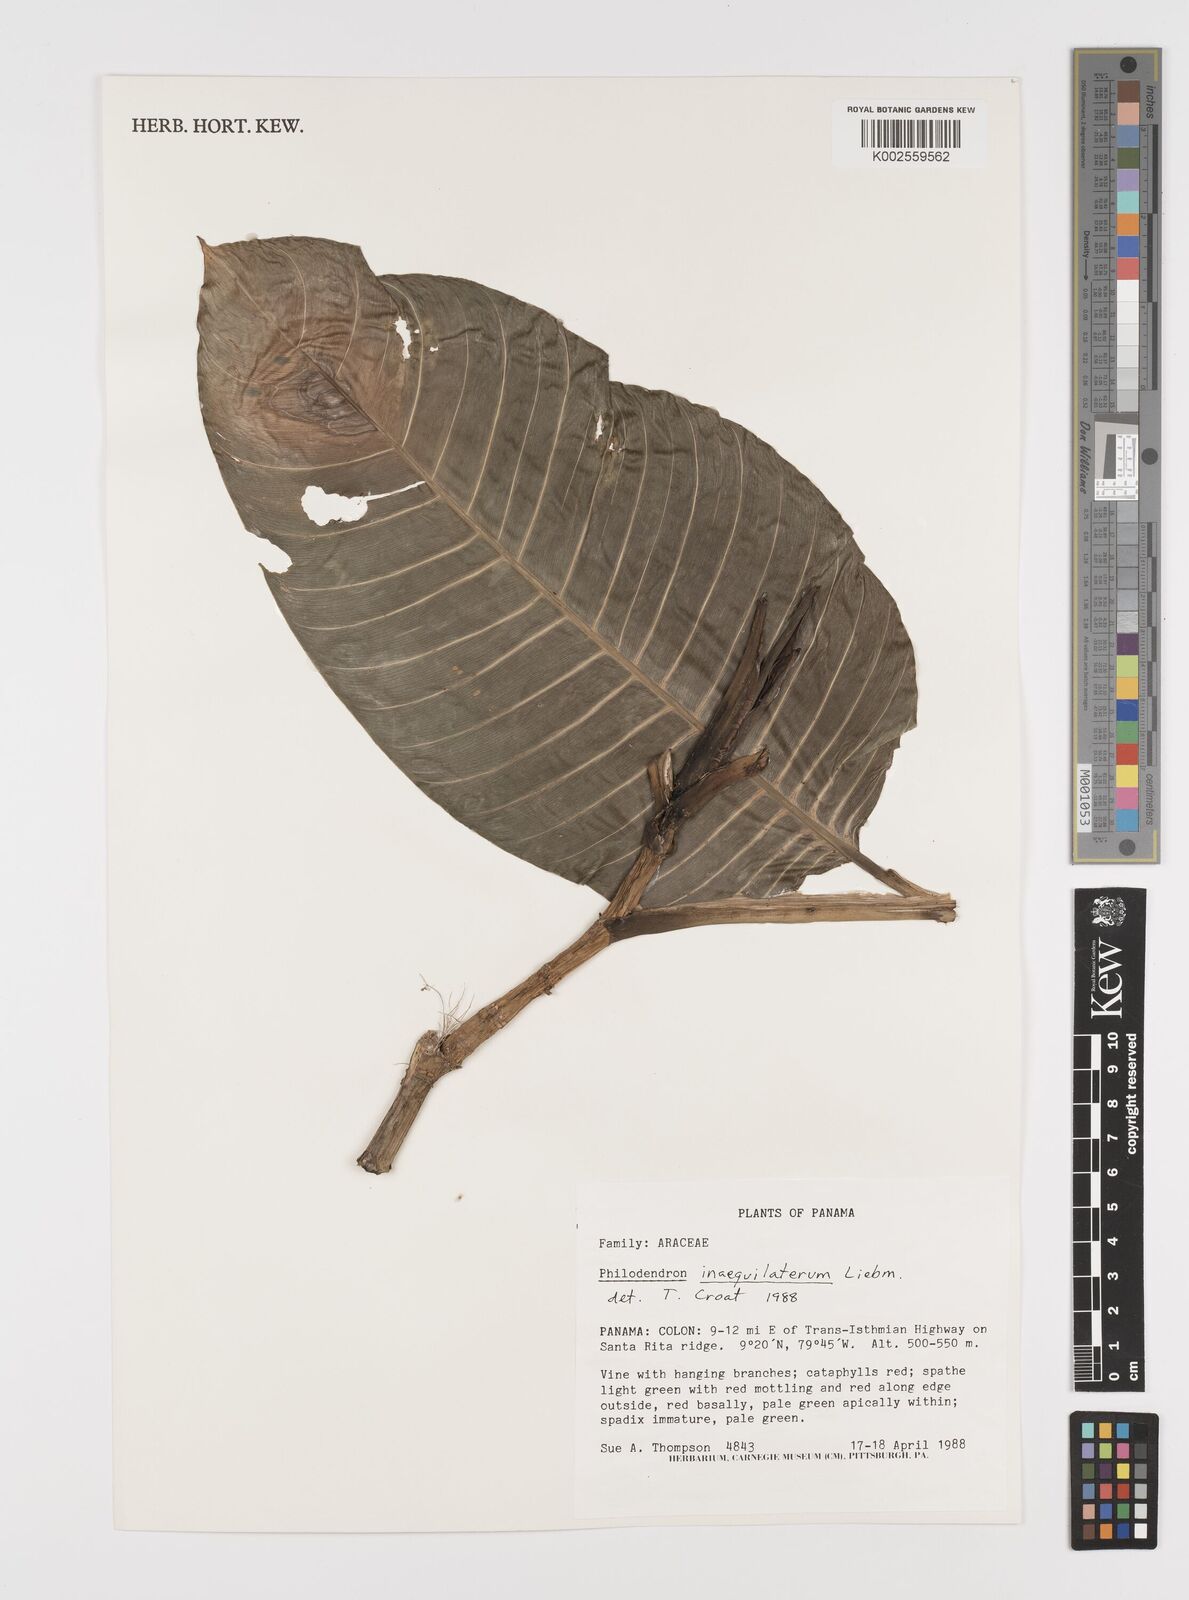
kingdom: Plantae
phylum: Tracheophyta
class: Liliopsida
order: Alismatales
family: Araceae
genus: Philodendron
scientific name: Philodendron inaequilaterum
